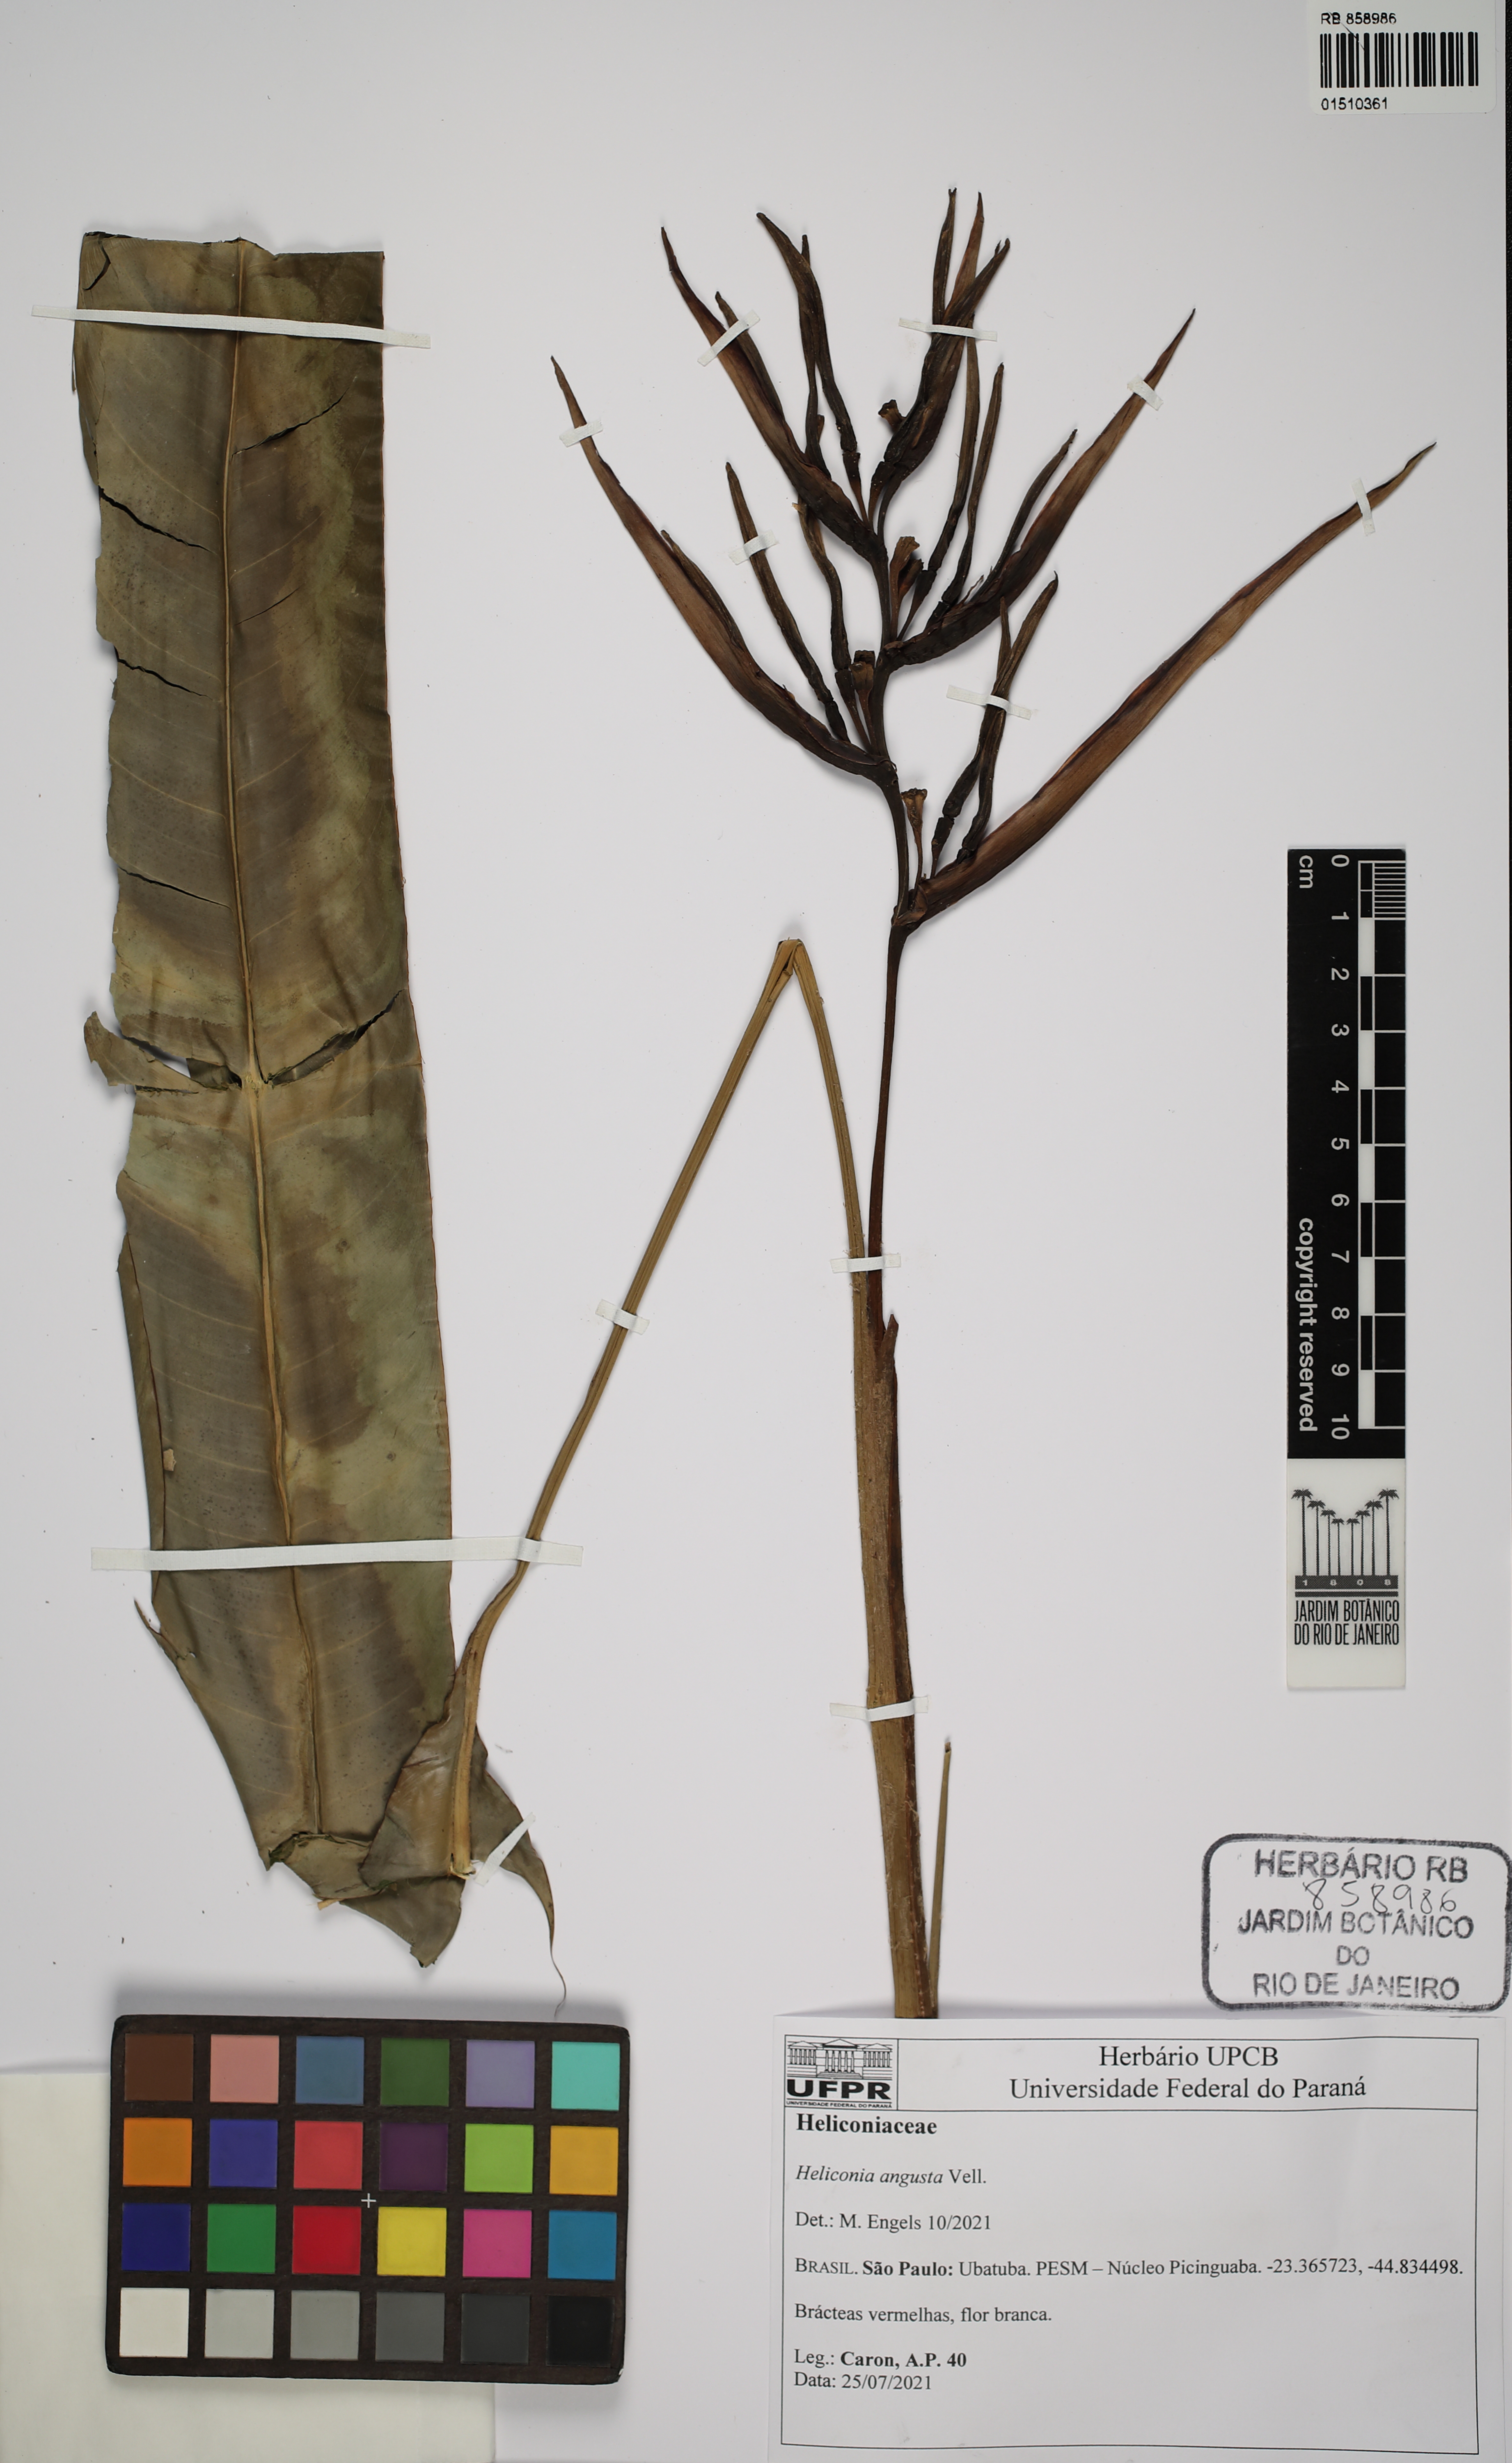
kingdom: Plantae
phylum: Tracheophyta
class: Liliopsida
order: Zingiberales
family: Heliconiaceae
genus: Heliconia
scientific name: Heliconia angusta
